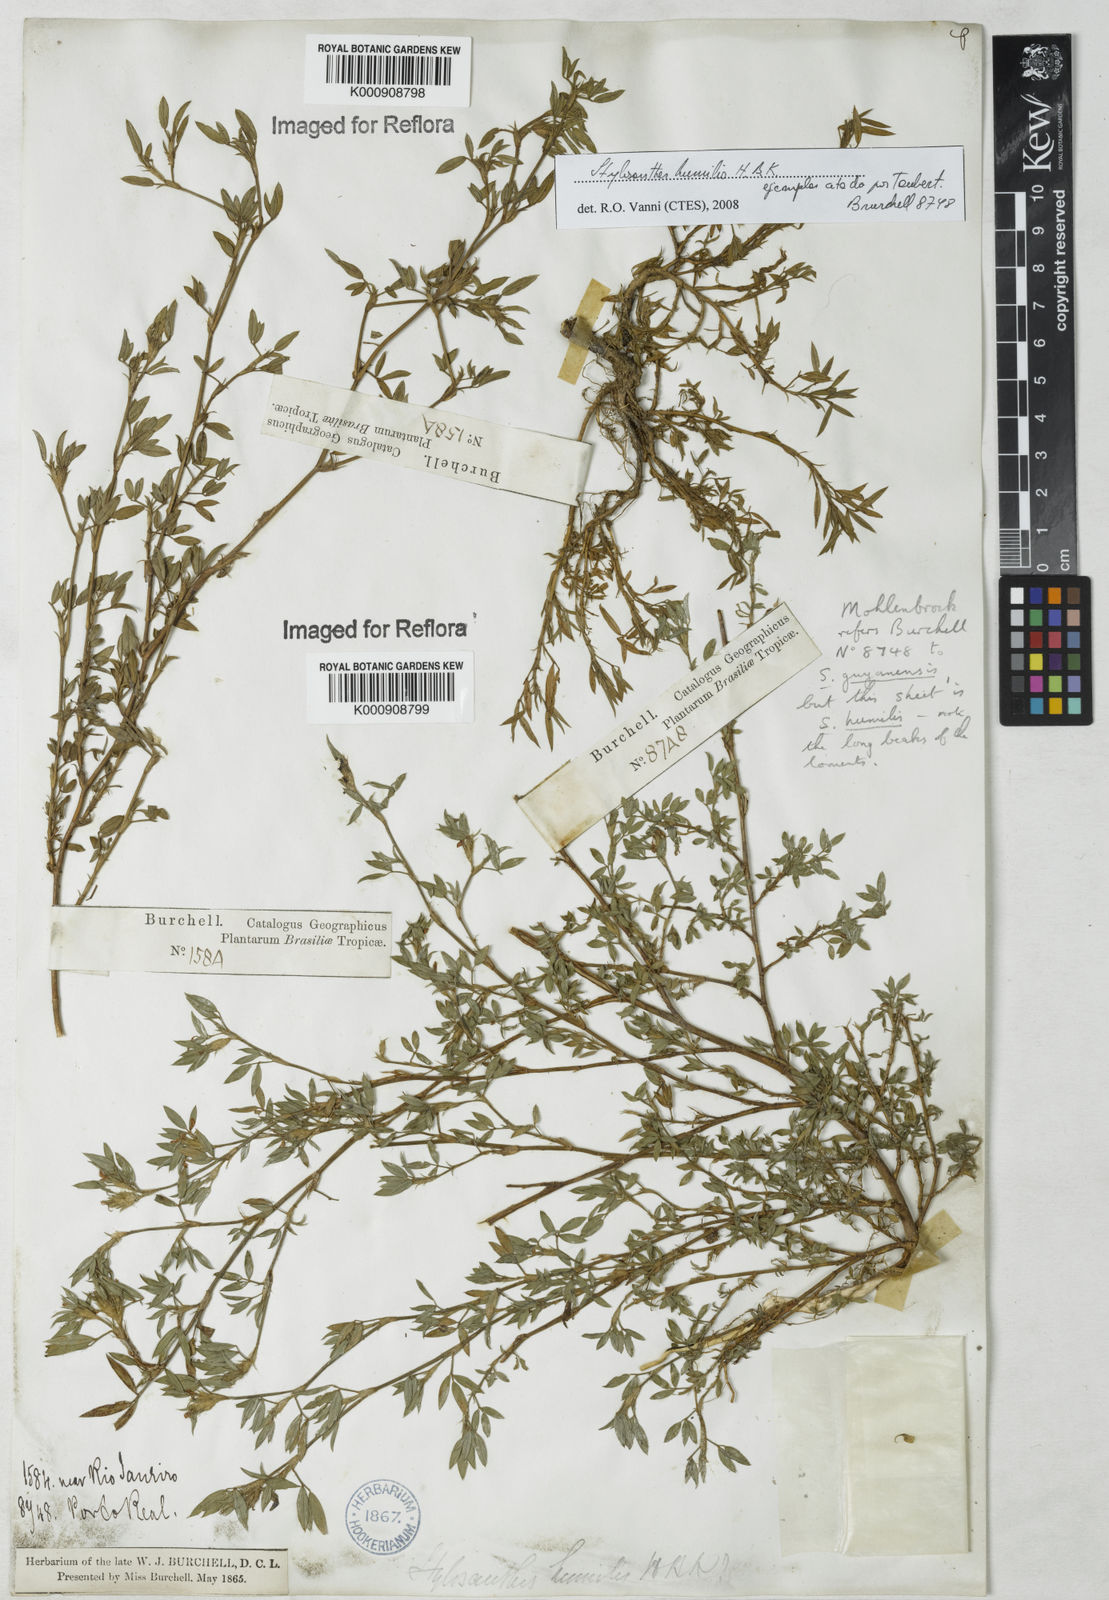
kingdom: Plantae
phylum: Tracheophyta
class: Magnoliopsida
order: Fabales
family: Fabaceae
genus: Stylosanthes
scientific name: Stylosanthes humilis
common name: Townsville stylo
